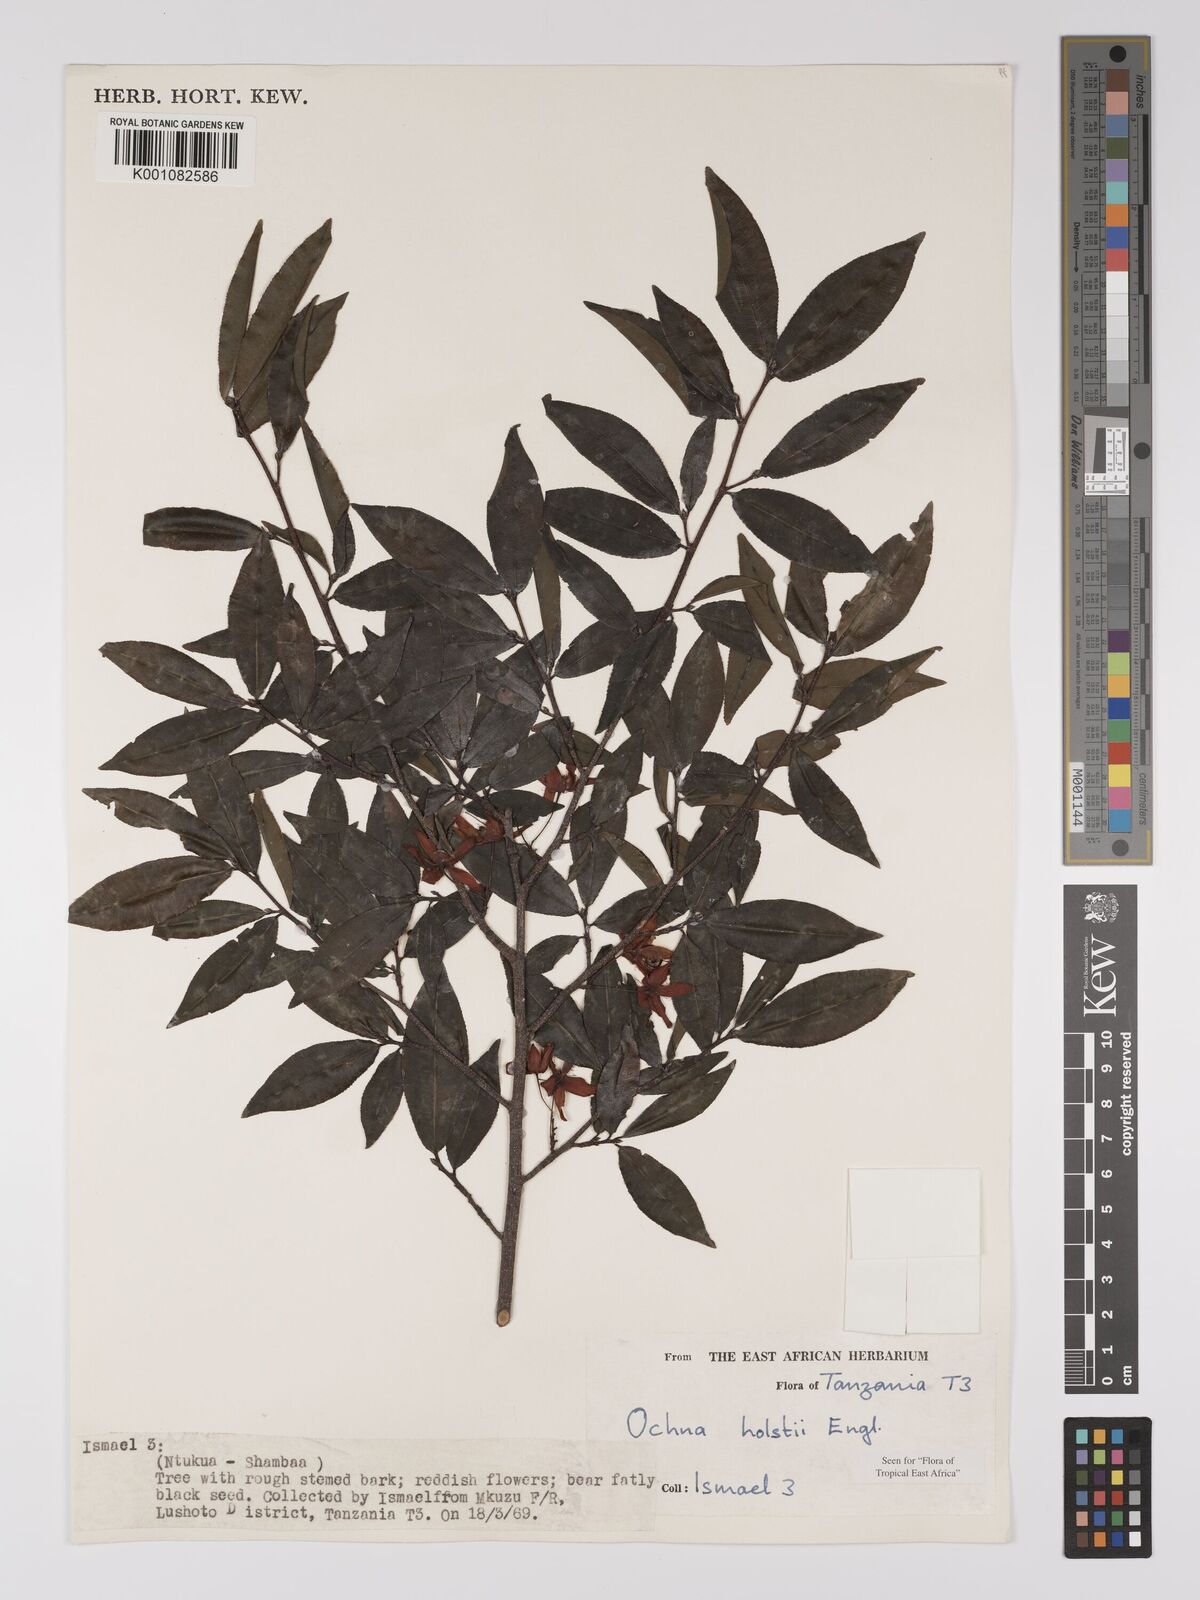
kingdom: Plantae
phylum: Tracheophyta
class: Magnoliopsida
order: Malpighiales
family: Ochnaceae
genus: Ochna
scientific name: Ochna holstii
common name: Red ironwood
